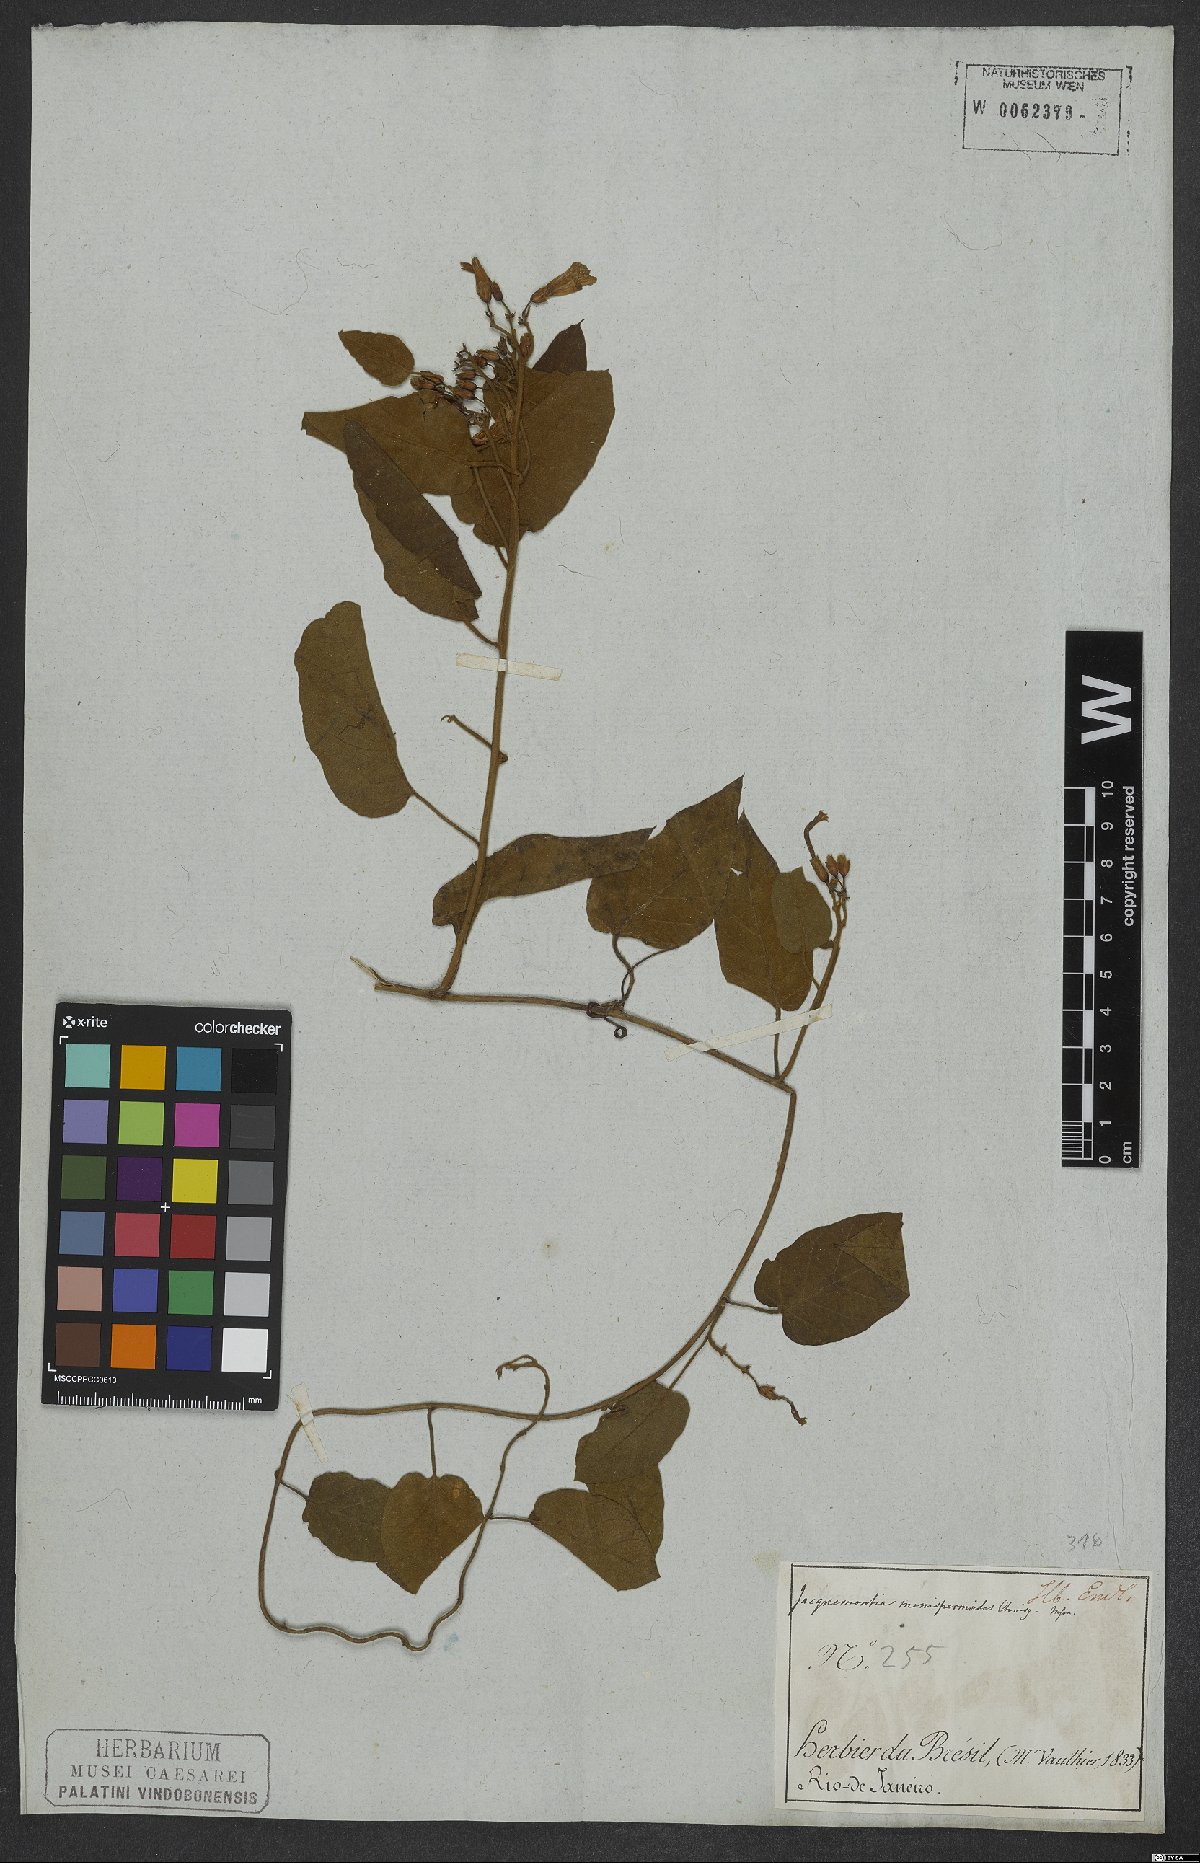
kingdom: Plantae
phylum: Tracheophyta
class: Magnoliopsida
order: Solanales
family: Convolvulaceae
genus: Jacquemontia
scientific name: Jacquemontia holosericea
